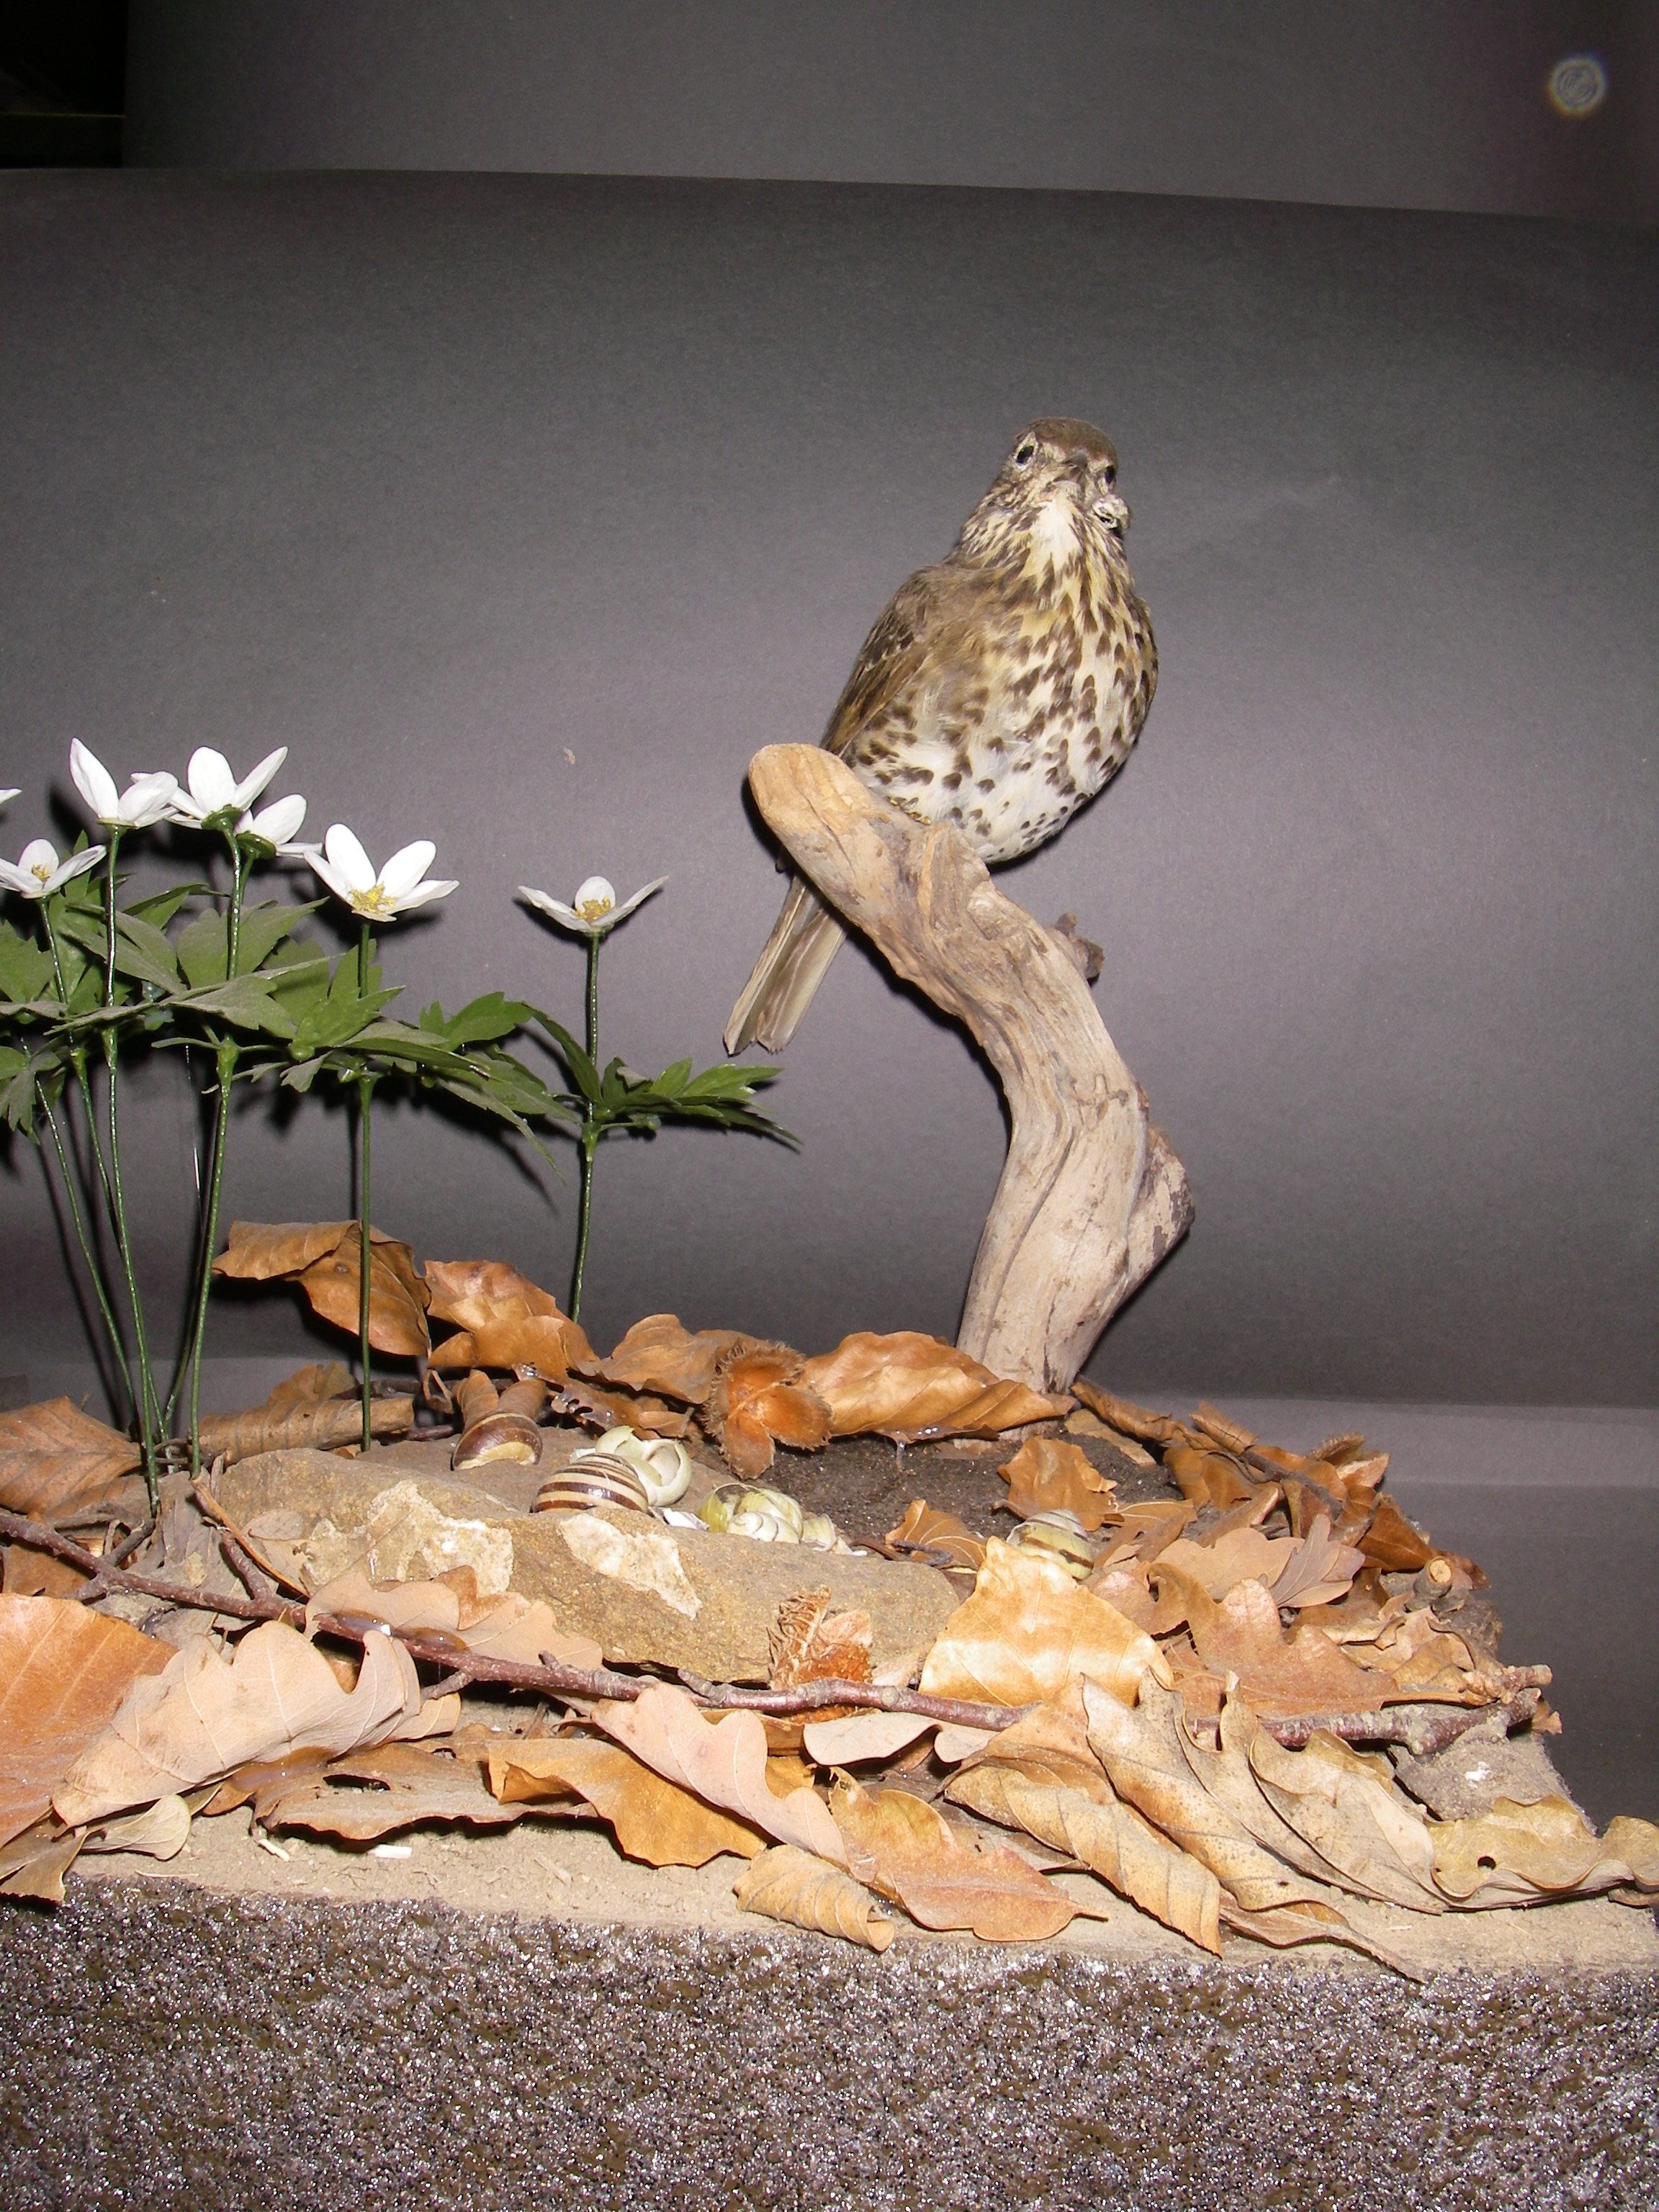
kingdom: Animalia
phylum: Chordata
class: Aves
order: Passeriformes
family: Turdidae
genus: Turdus
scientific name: Turdus philomelos
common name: Song thrush
